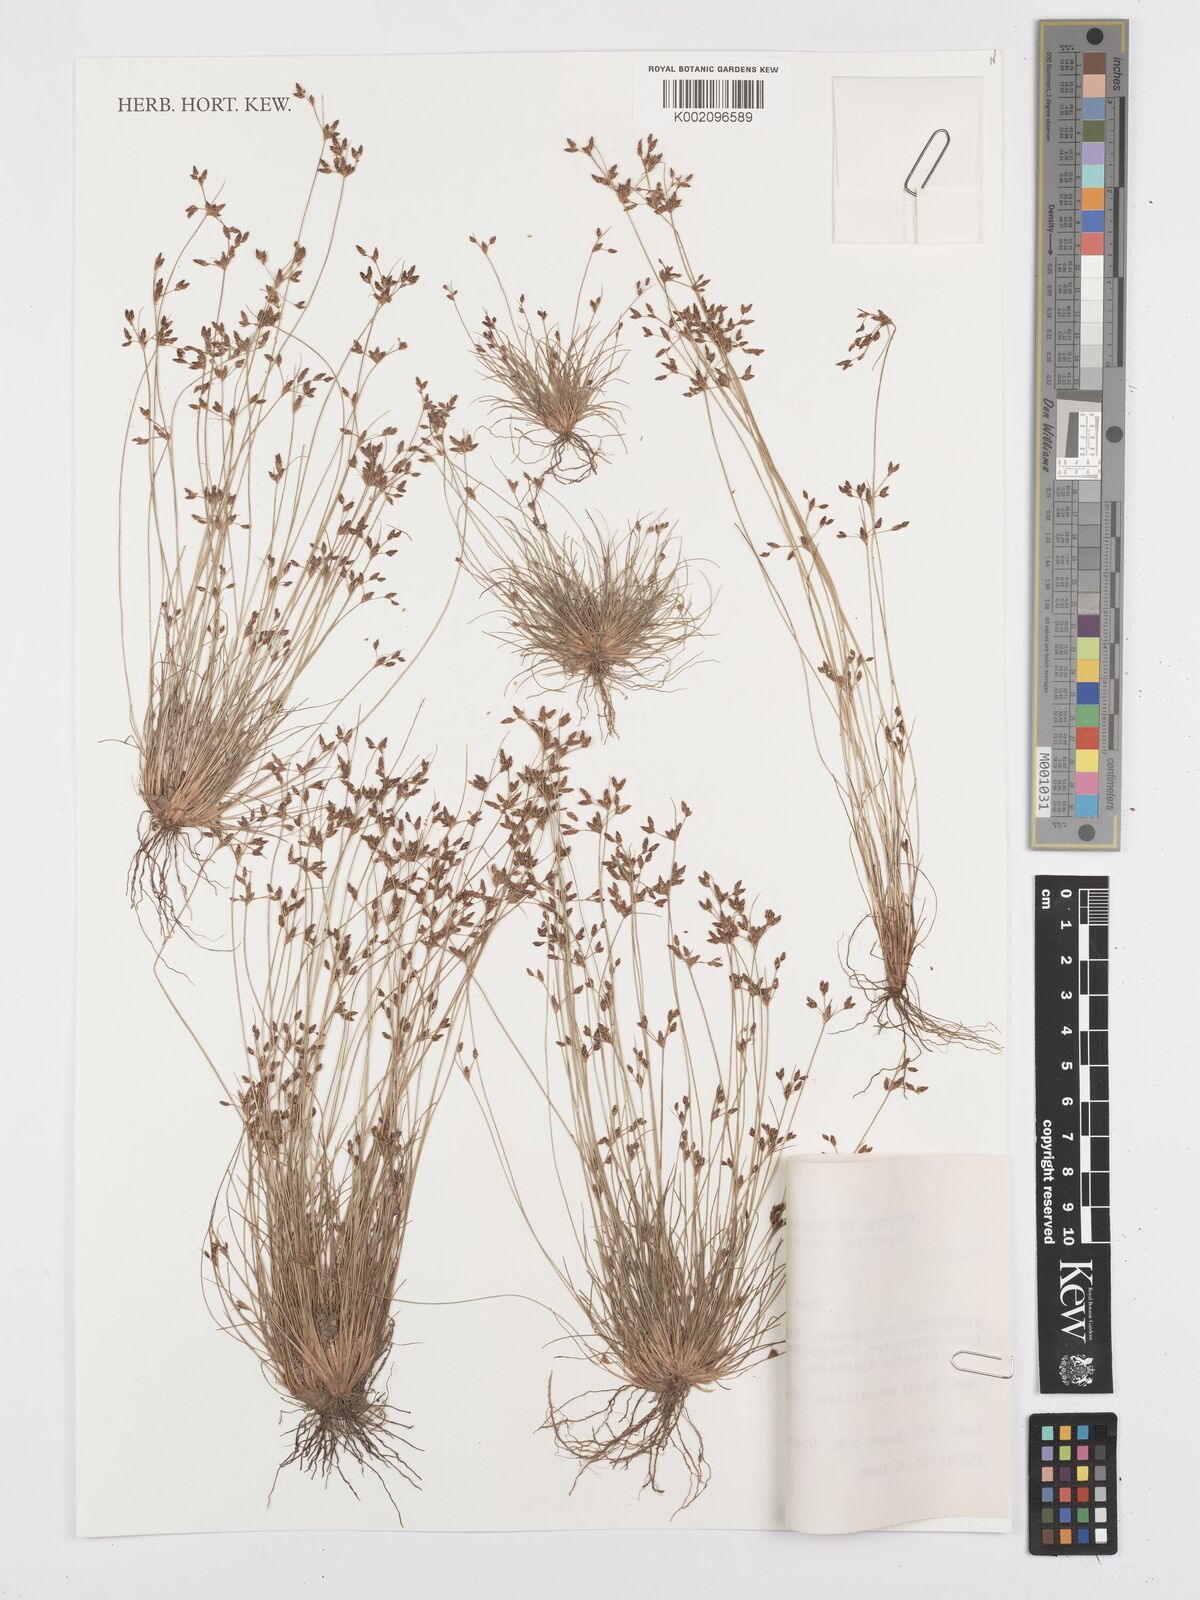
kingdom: Plantae
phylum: Tracheophyta
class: Liliopsida
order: Poales
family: Cyperaceae
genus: Bulbostylis
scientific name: Bulbostylis communis
